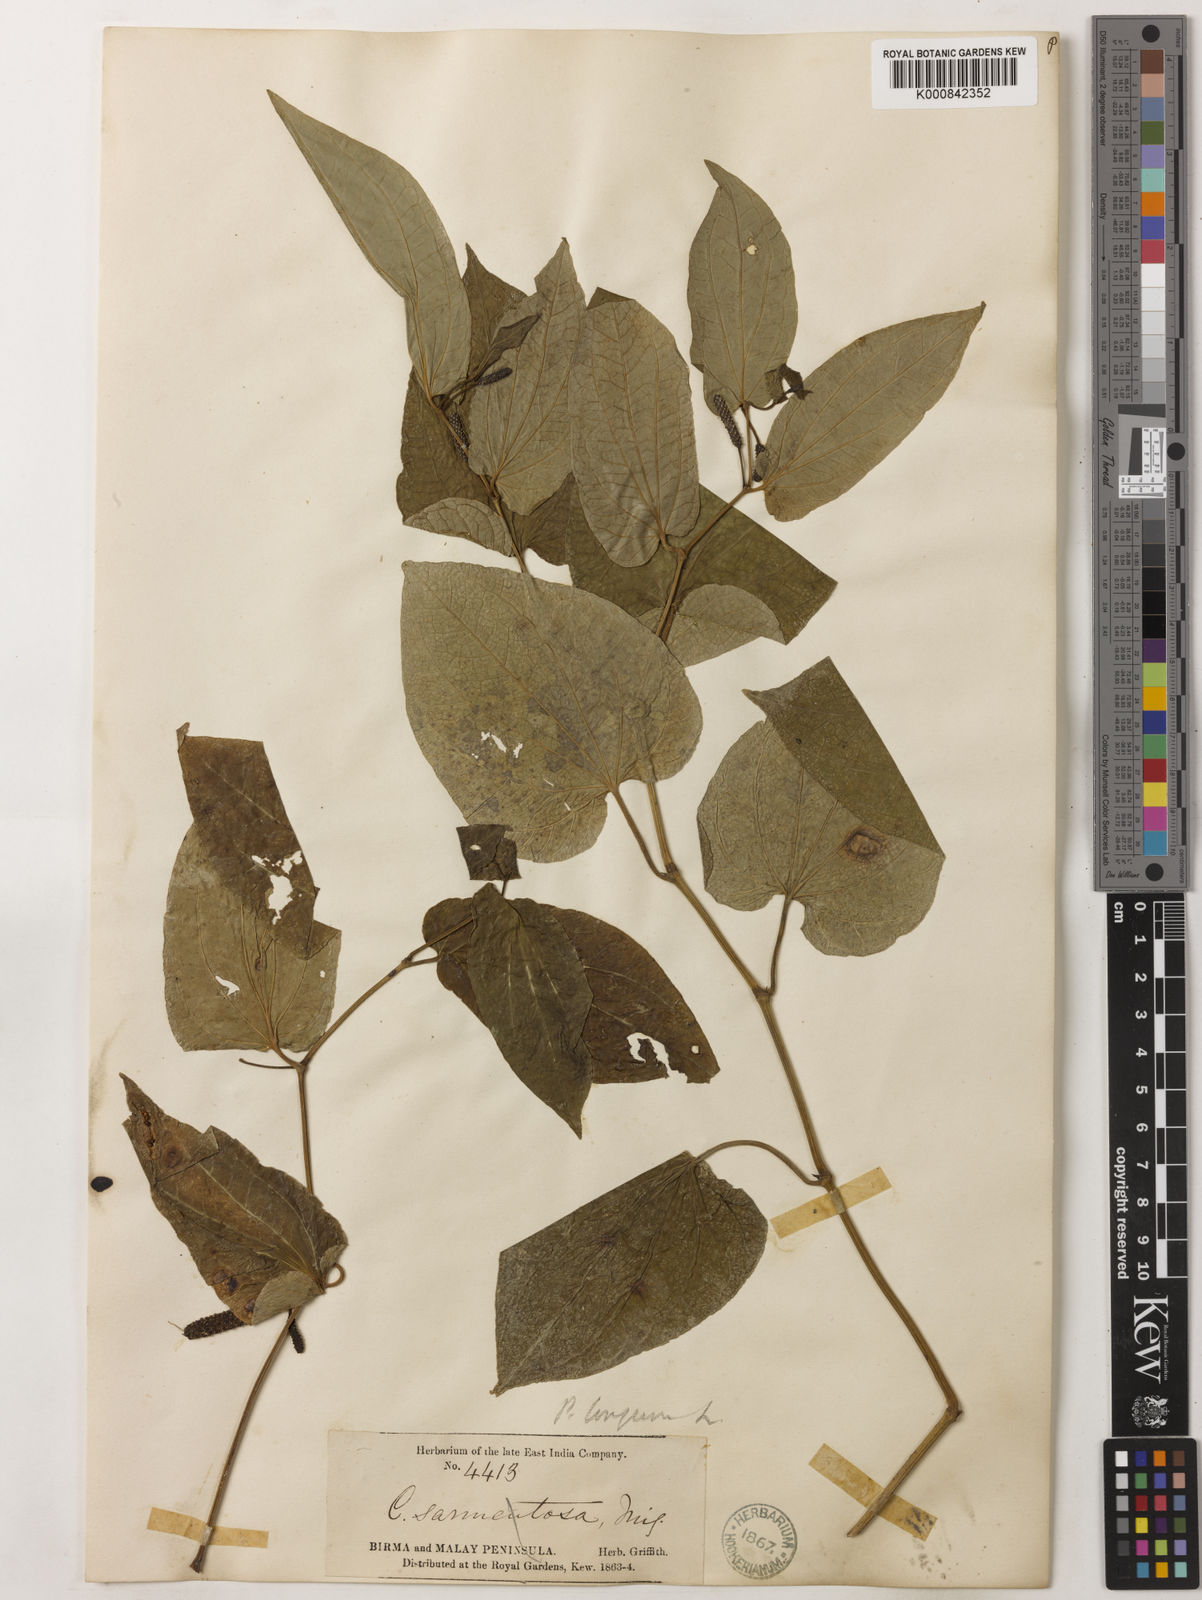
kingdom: Plantae
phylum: Tracheophyta
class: Magnoliopsida
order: Piperales
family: Piperaceae
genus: Piper
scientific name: Piper sarmentosum
